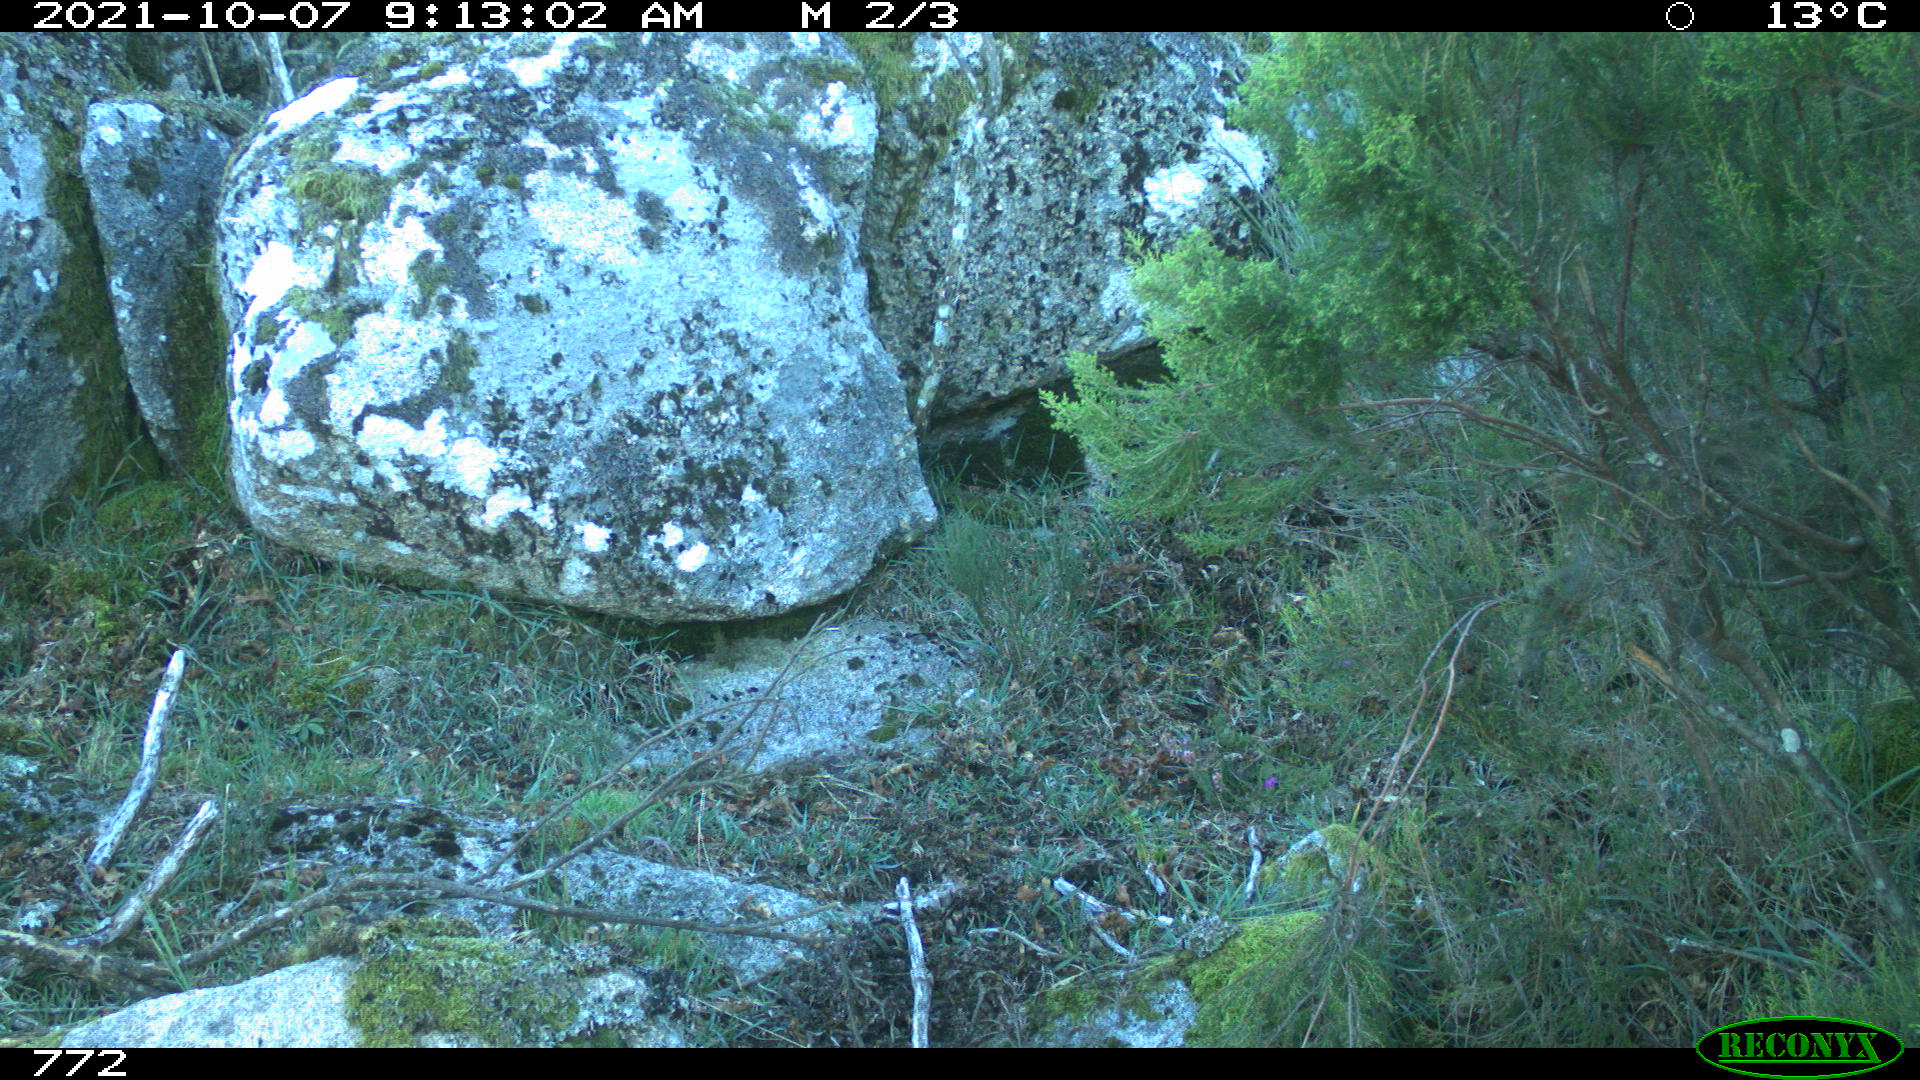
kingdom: Animalia
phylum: Chordata
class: Mammalia
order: Artiodactyla
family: Suidae
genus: Sus
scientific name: Sus scrofa
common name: Wild boar
